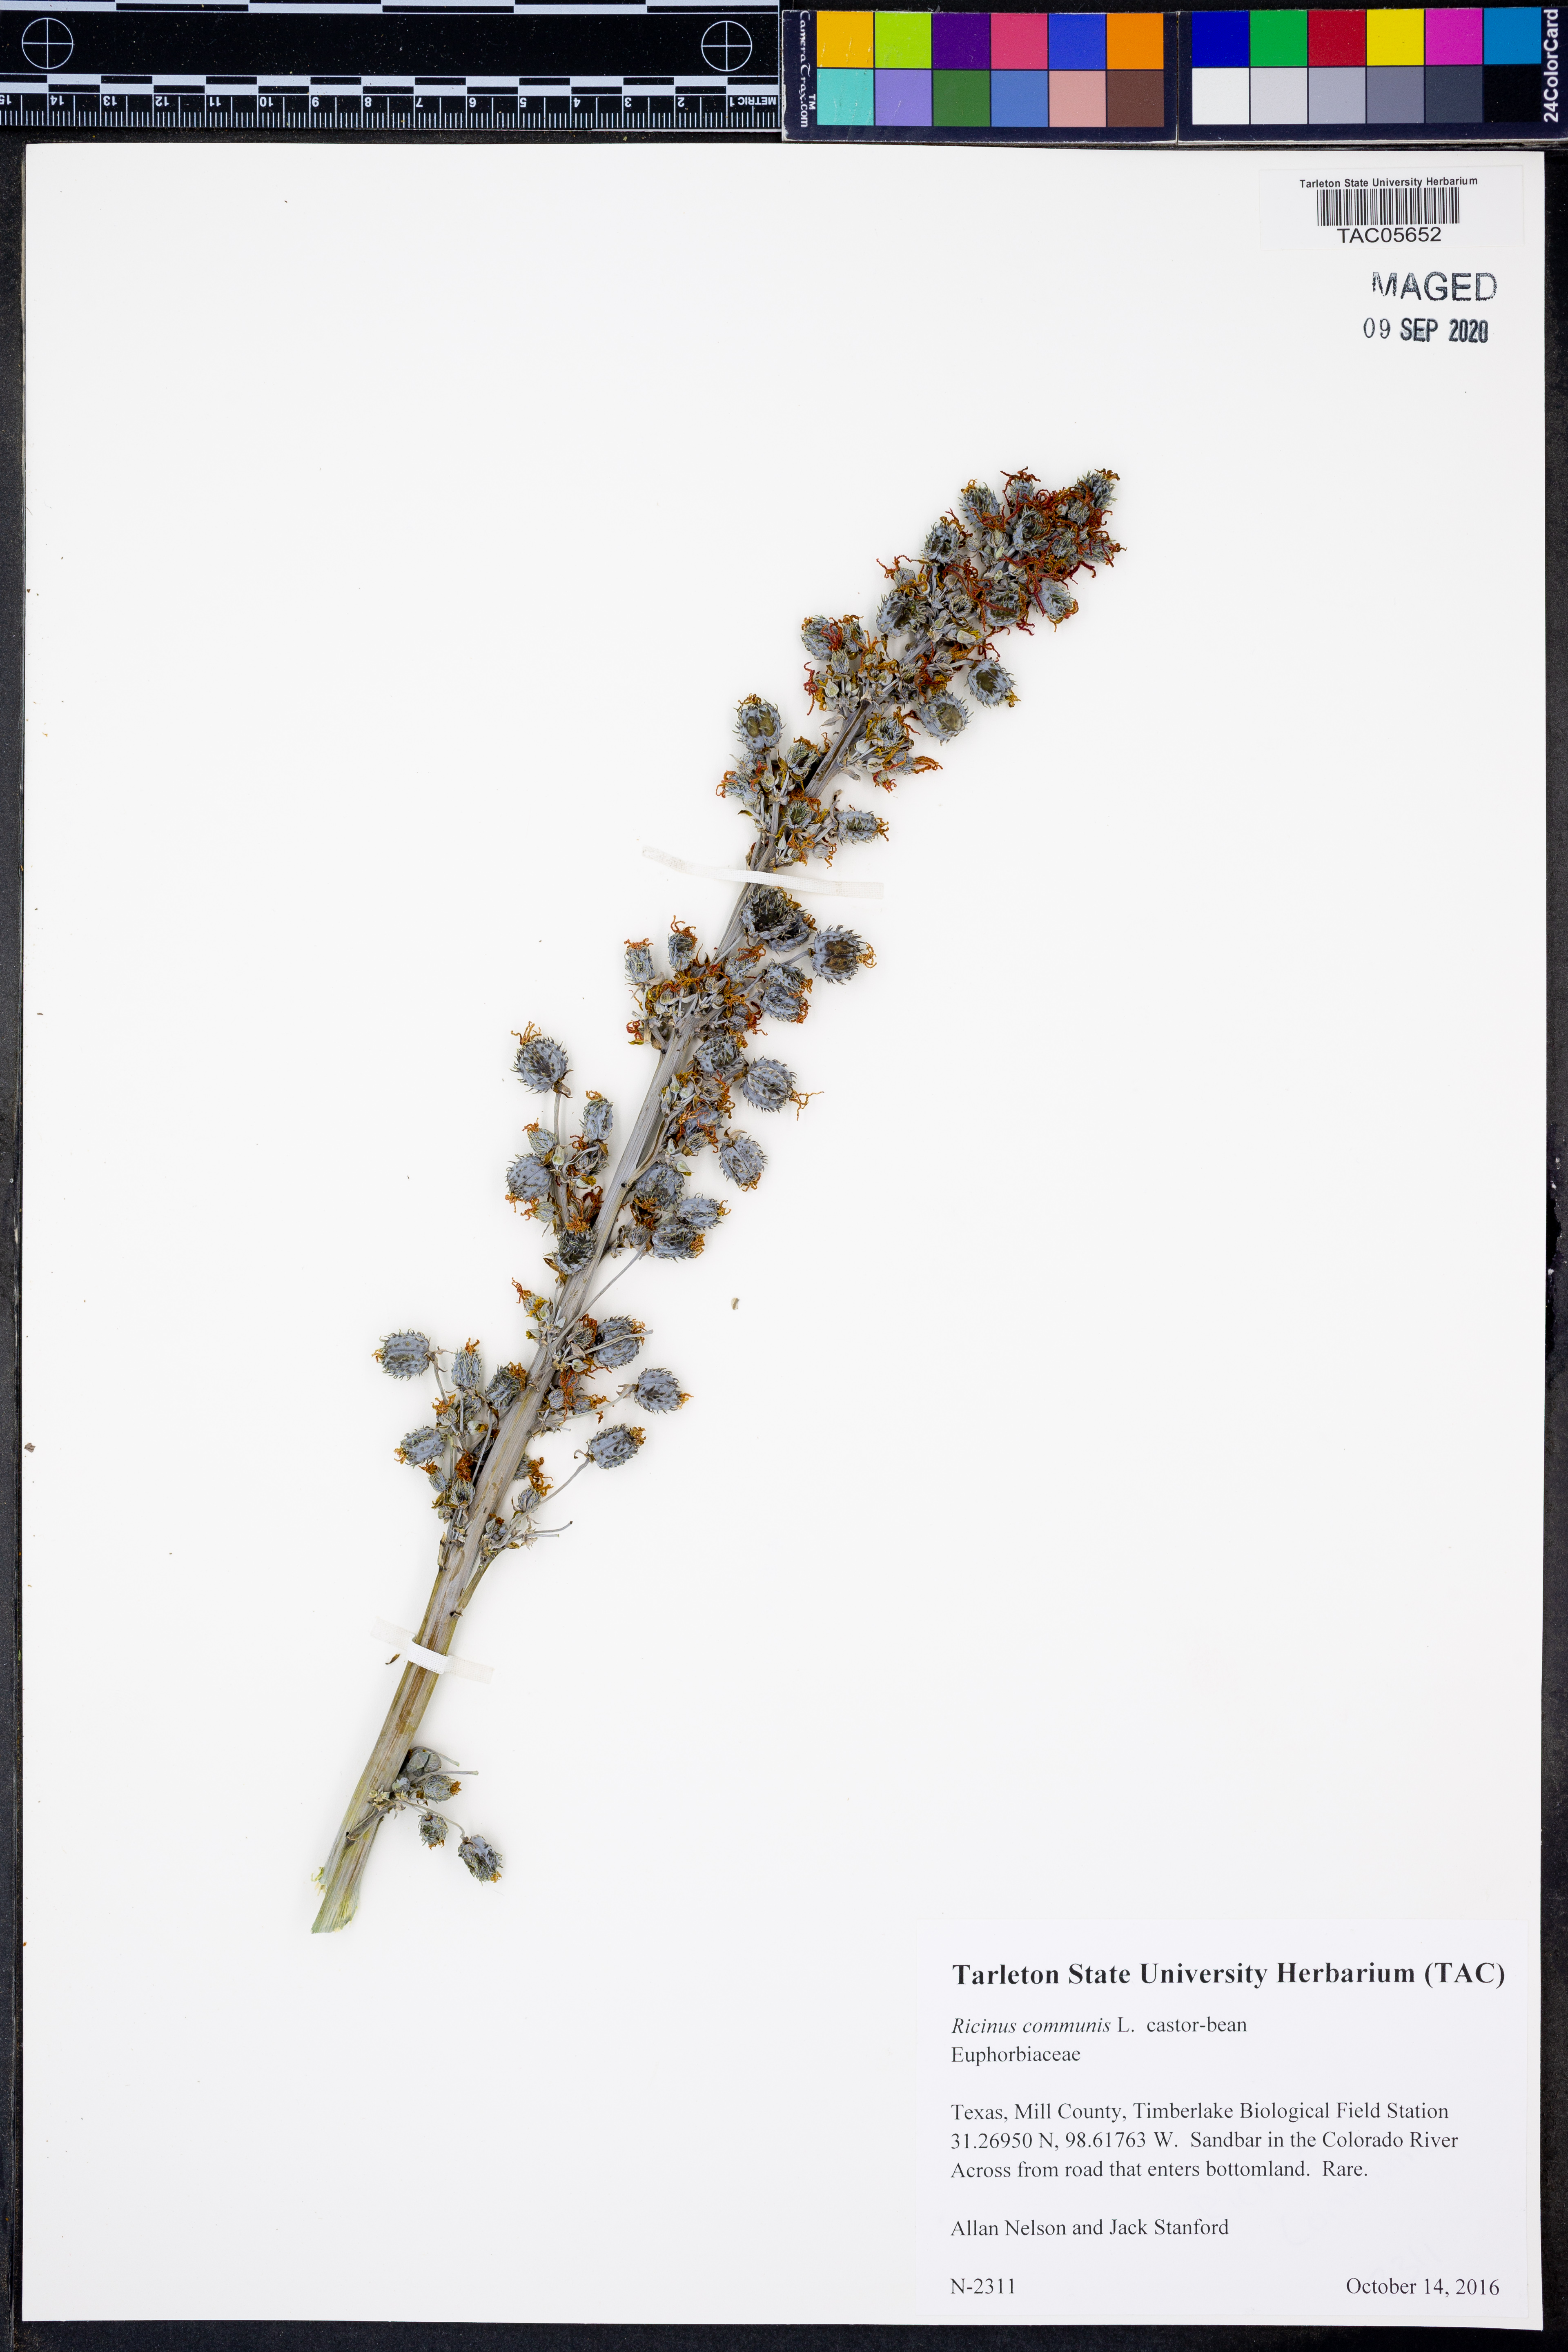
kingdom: Plantae
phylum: Tracheophyta
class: Magnoliopsida
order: Malpighiales
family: Euphorbiaceae
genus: Ricinus
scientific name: Ricinus communis
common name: Castor-oil-plant
